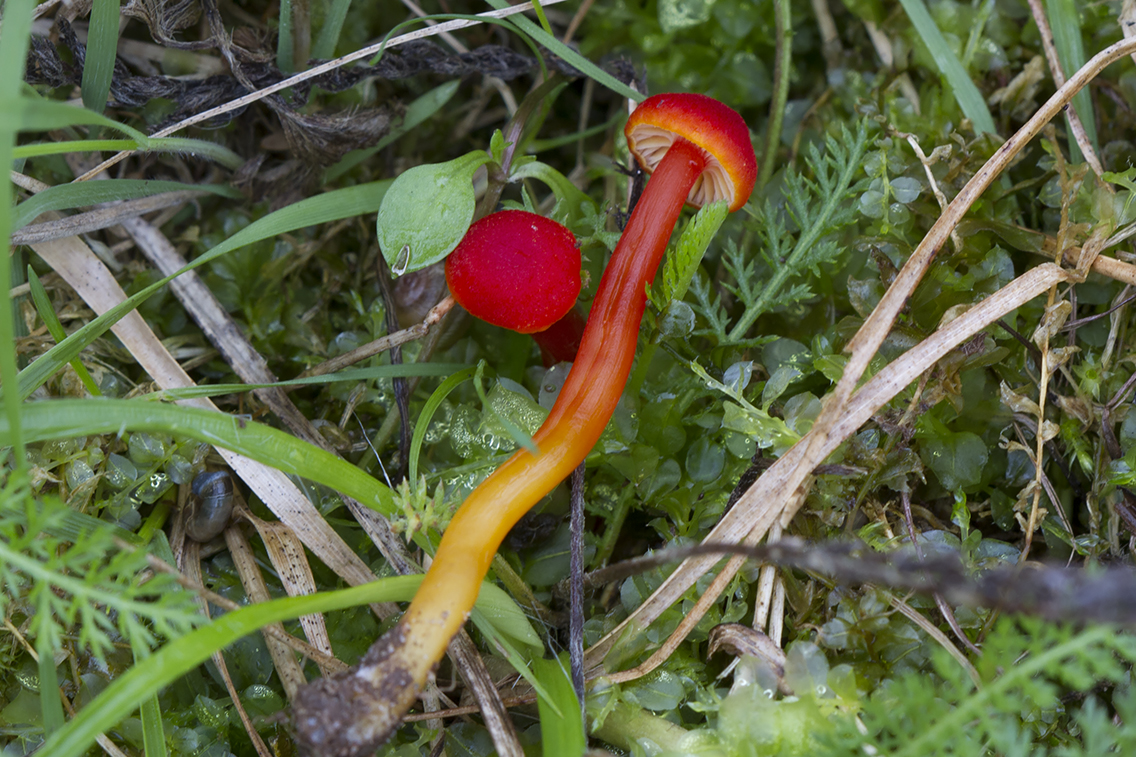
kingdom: Fungi
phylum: Basidiomycota
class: Agaricomycetes
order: Agaricales
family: Hygrophoraceae
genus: Hygrocybe
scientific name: Hygrocybe miniata
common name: mønje-vokshat
